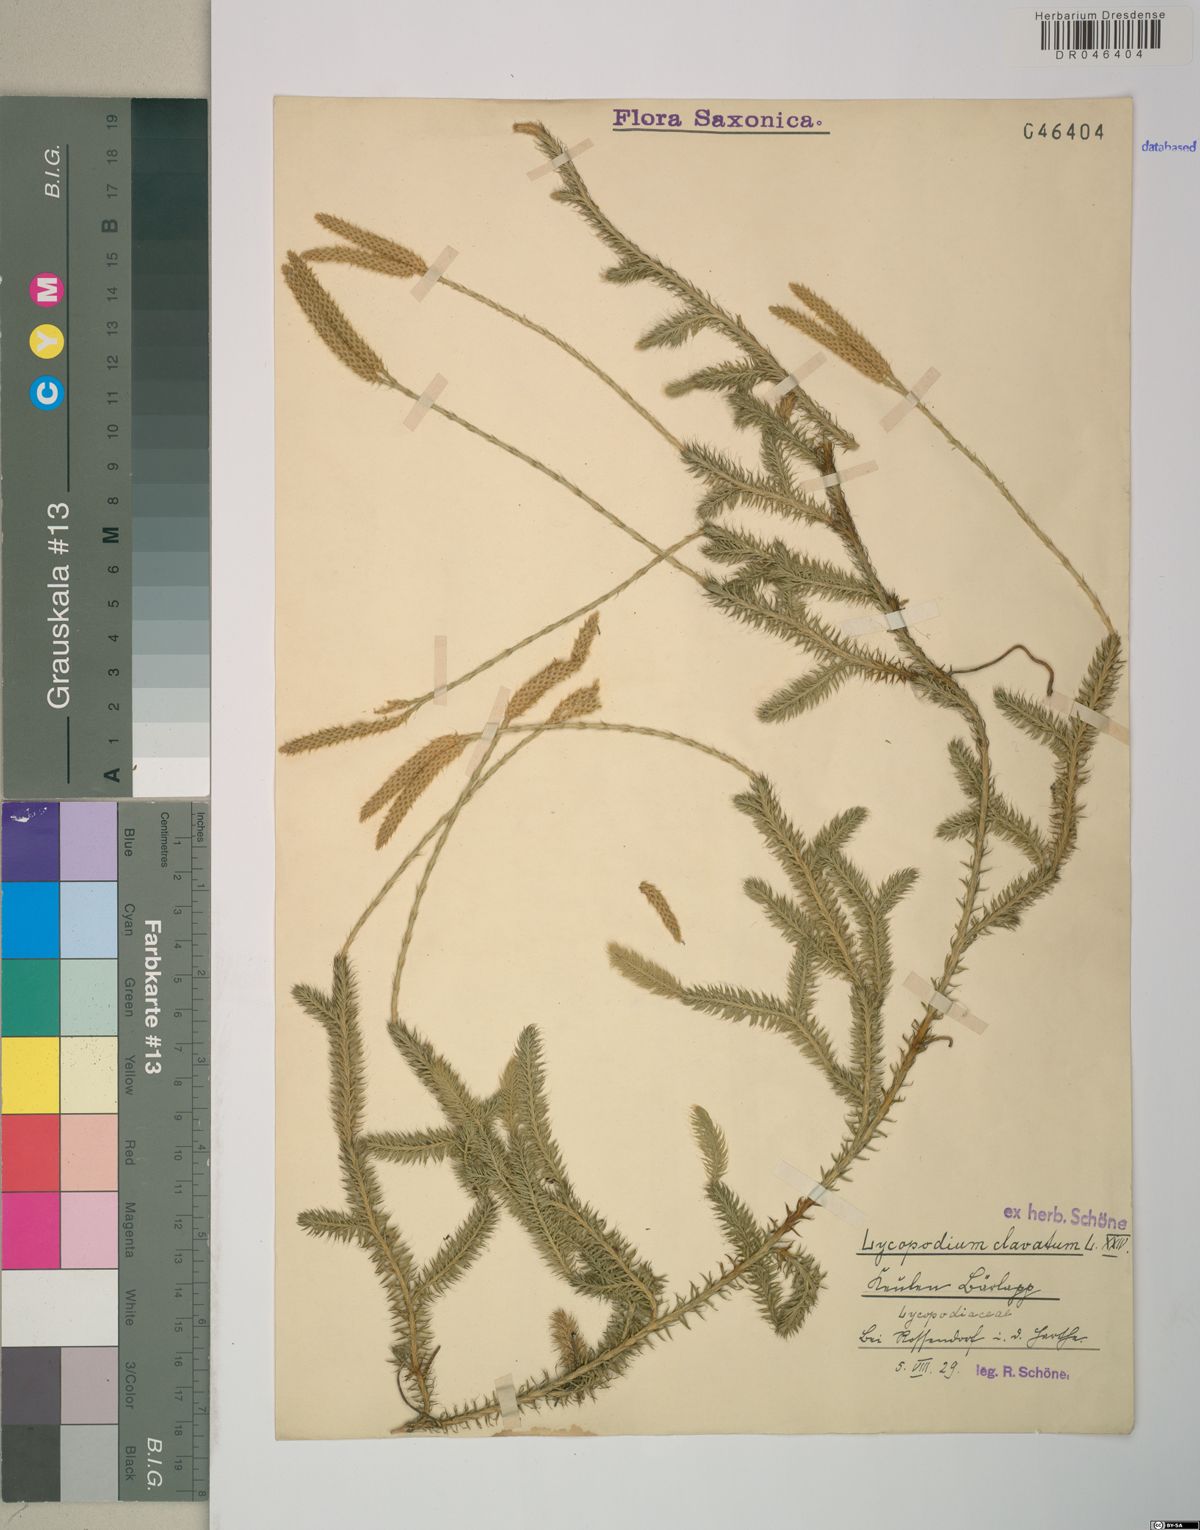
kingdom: Plantae
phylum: Tracheophyta
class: Lycopodiopsida
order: Lycopodiales
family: Lycopodiaceae
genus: Lycopodium
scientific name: Lycopodium clavatum
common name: Stag's-horn clubmoss
